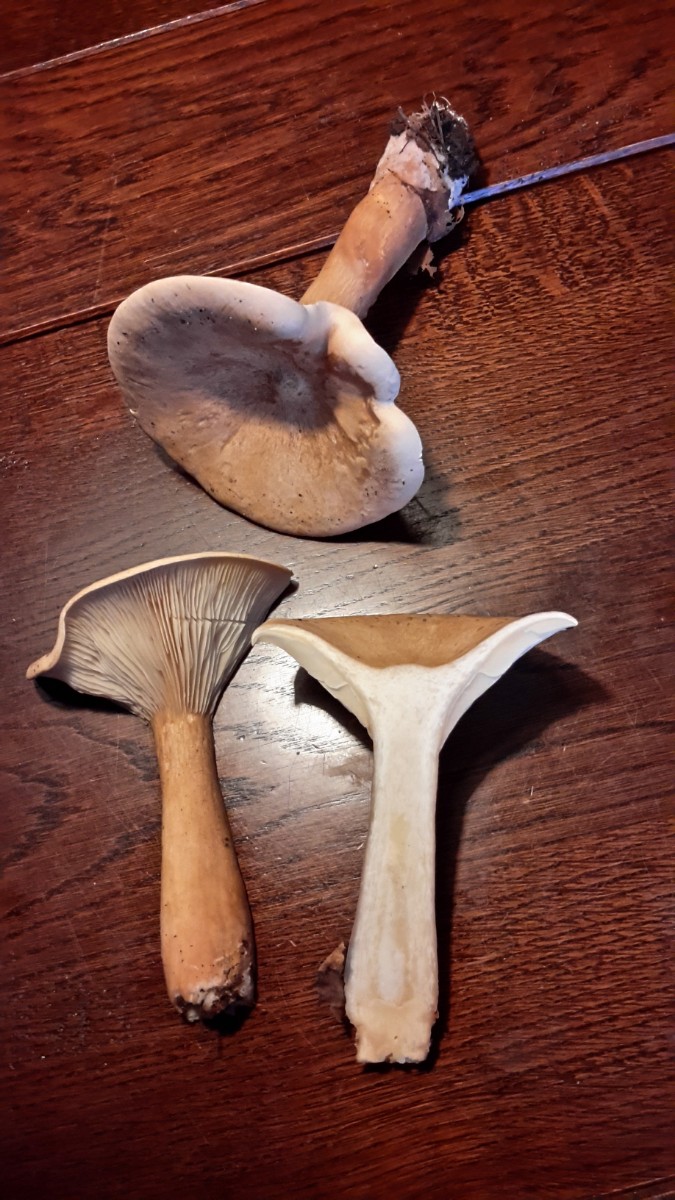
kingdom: Fungi
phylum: Basidiomycota
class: Agaricomycetes
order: Agaricales
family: Tricholomataceae
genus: Infundibulicybe
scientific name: Infundibulicybe geotropa
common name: stor tragthat
